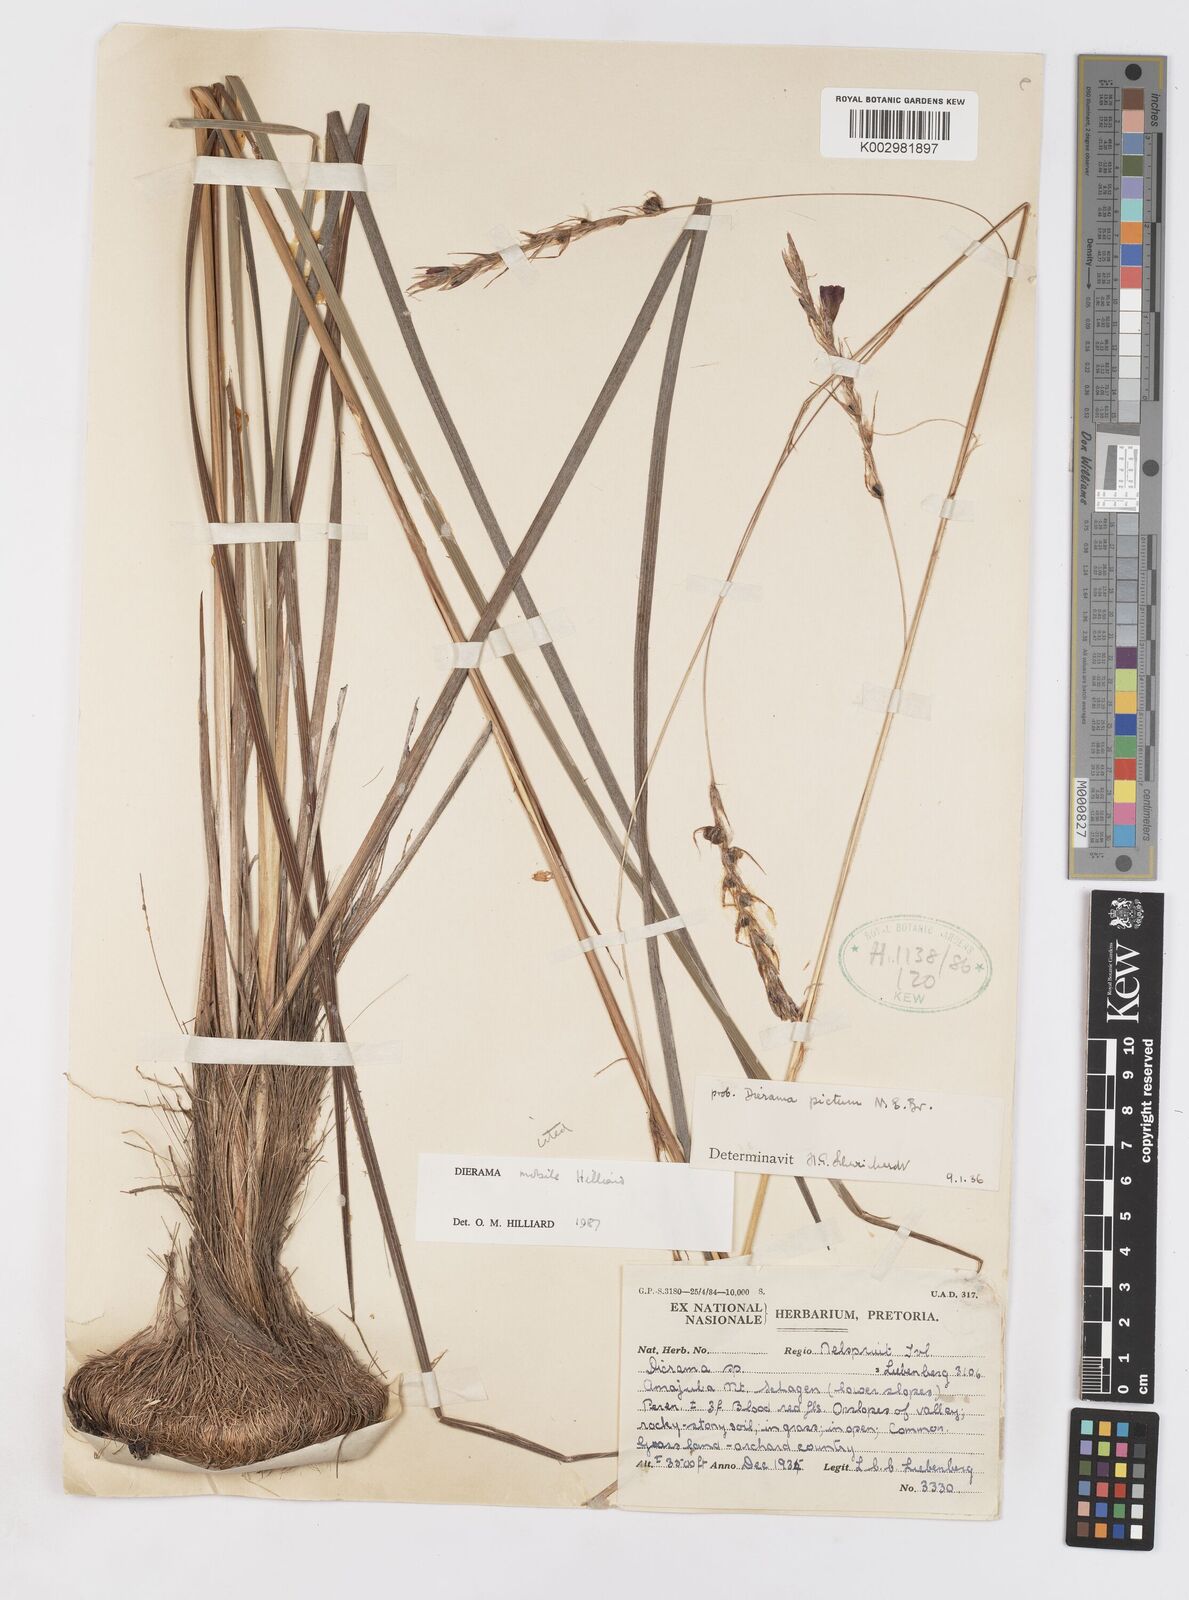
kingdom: Plantae
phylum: Tracheophyta
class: Liliopsida
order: Asparagales
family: Iridaceae
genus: Dierama
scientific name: Dierama mobile
